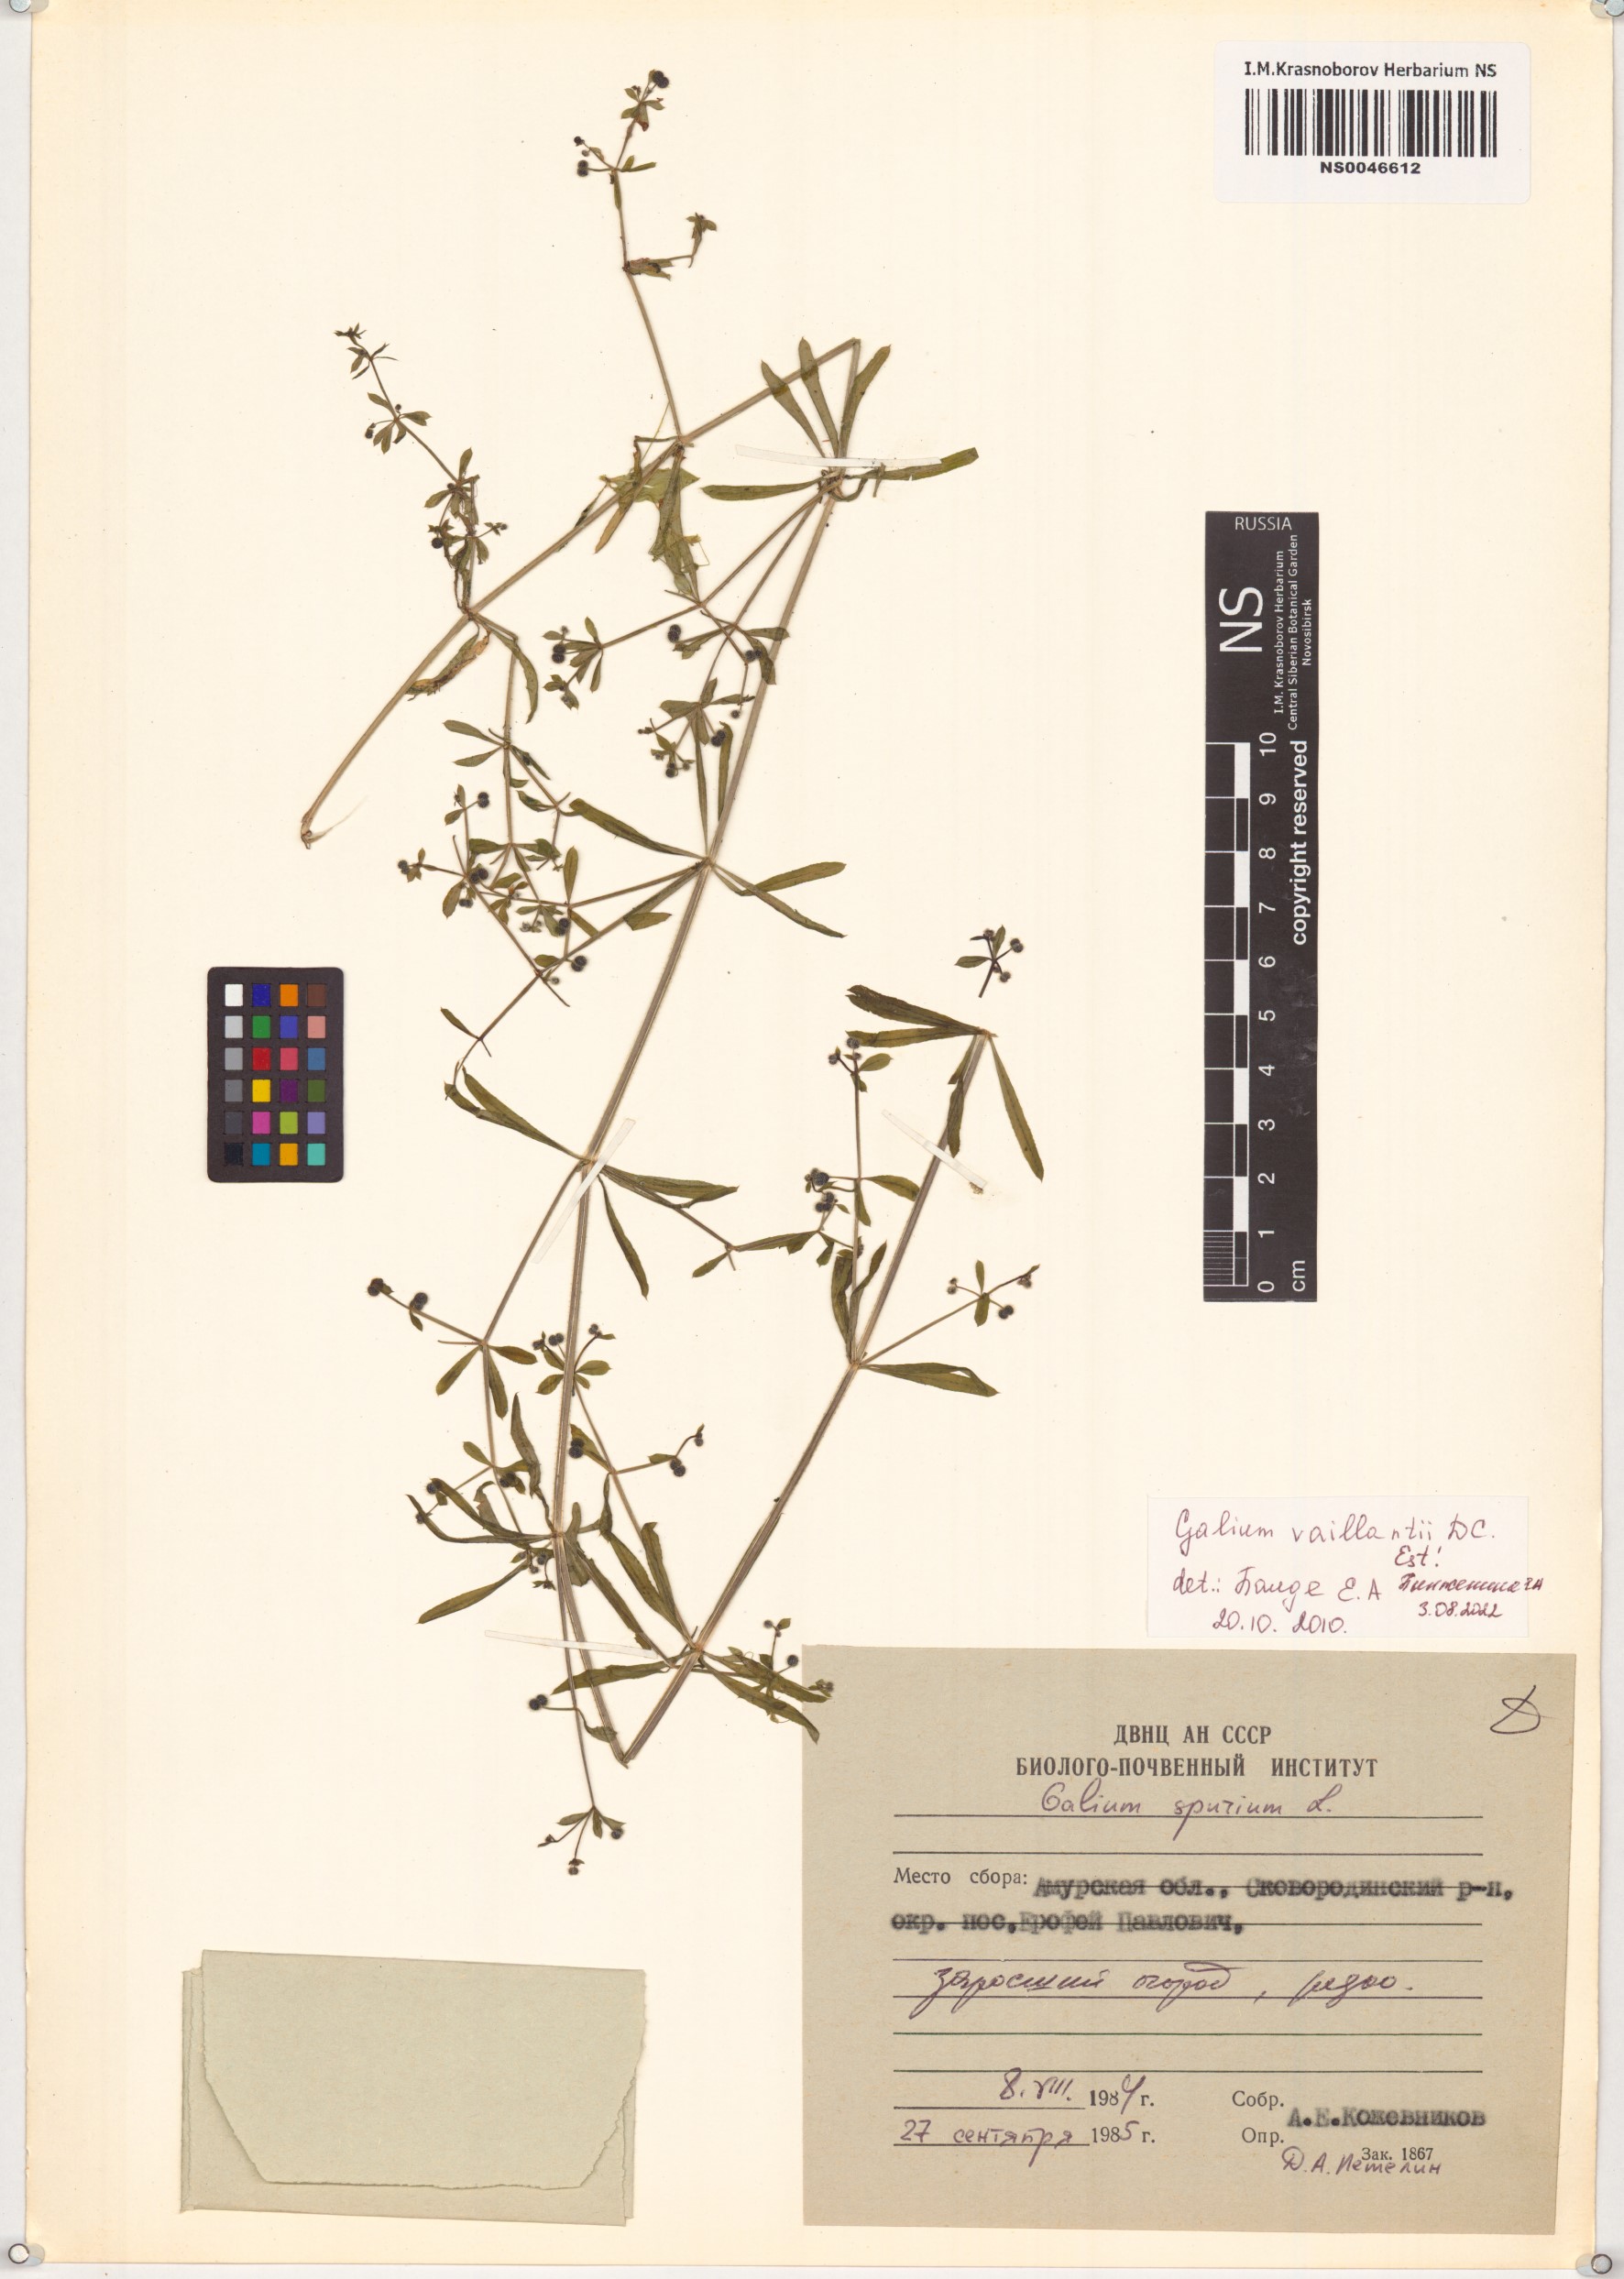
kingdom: Plantae
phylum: Tracheophyta
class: Magnoliopsida
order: Gentianales
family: Rubiaceae
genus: Galium
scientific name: Galium spurium
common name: False cleavers
